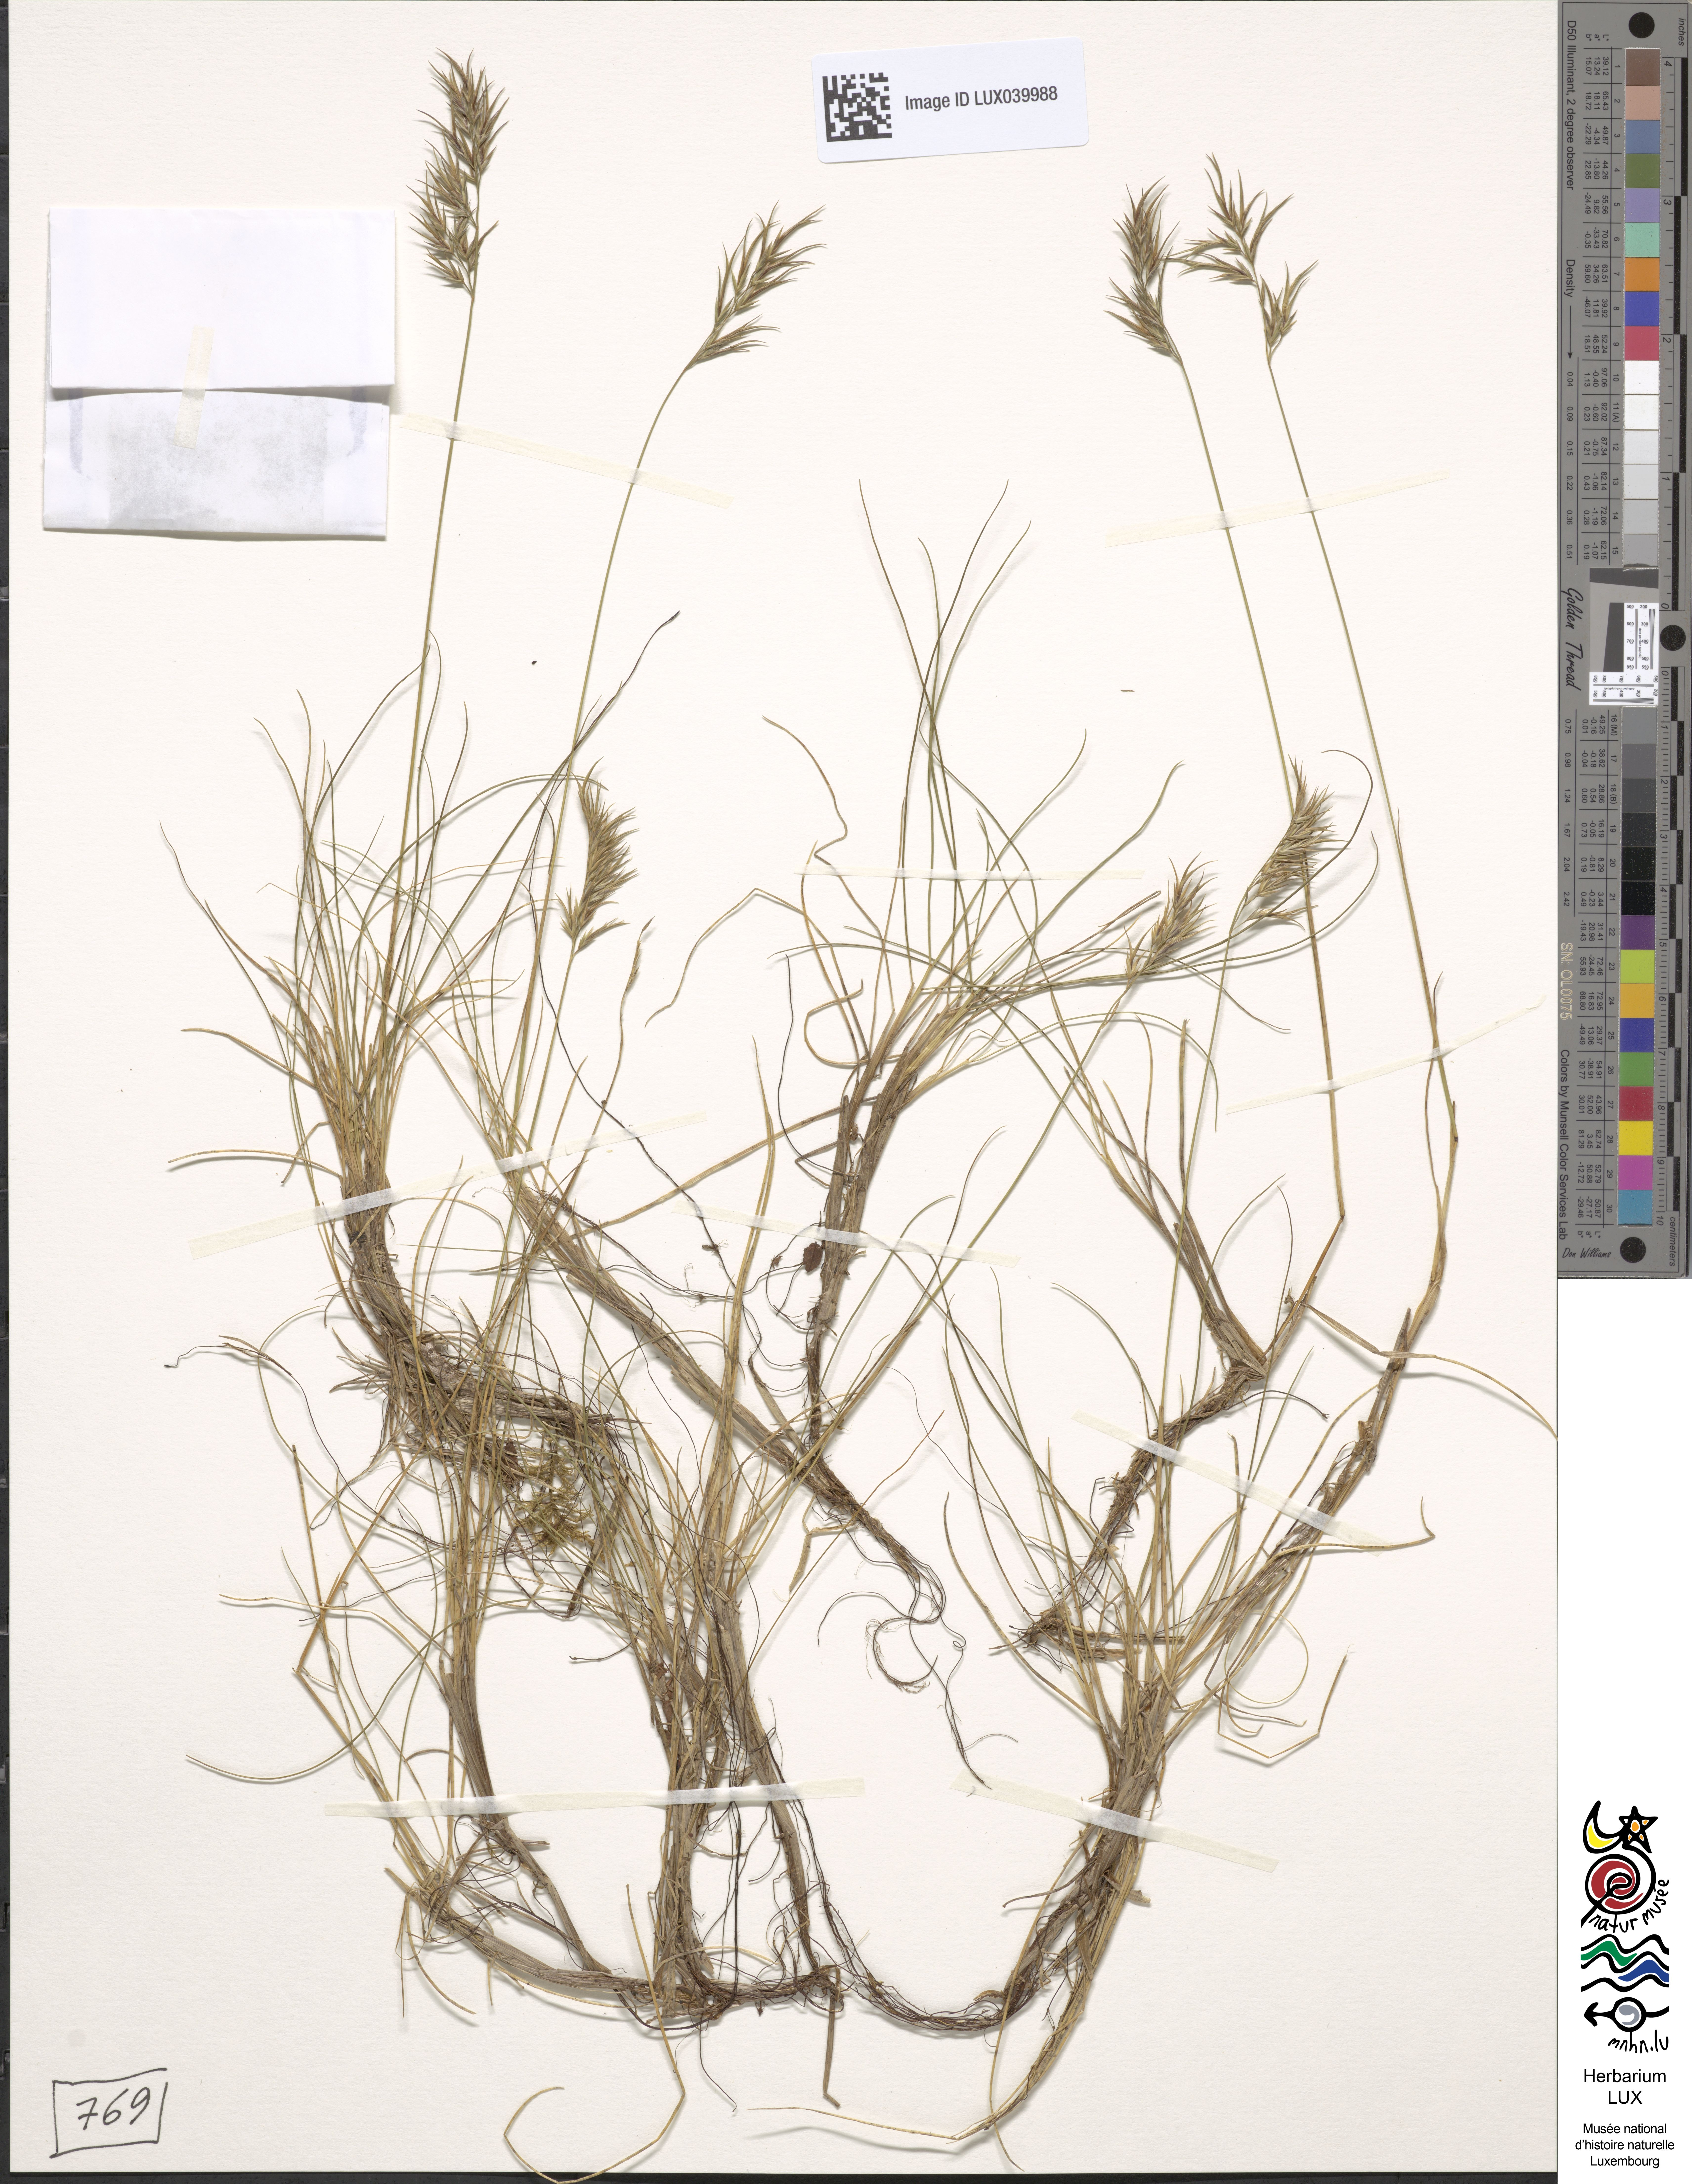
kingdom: Plantae
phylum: Tracheophyta
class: Liliopsida
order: Poales
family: Poaceae
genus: Festuca
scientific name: Festuca varia
